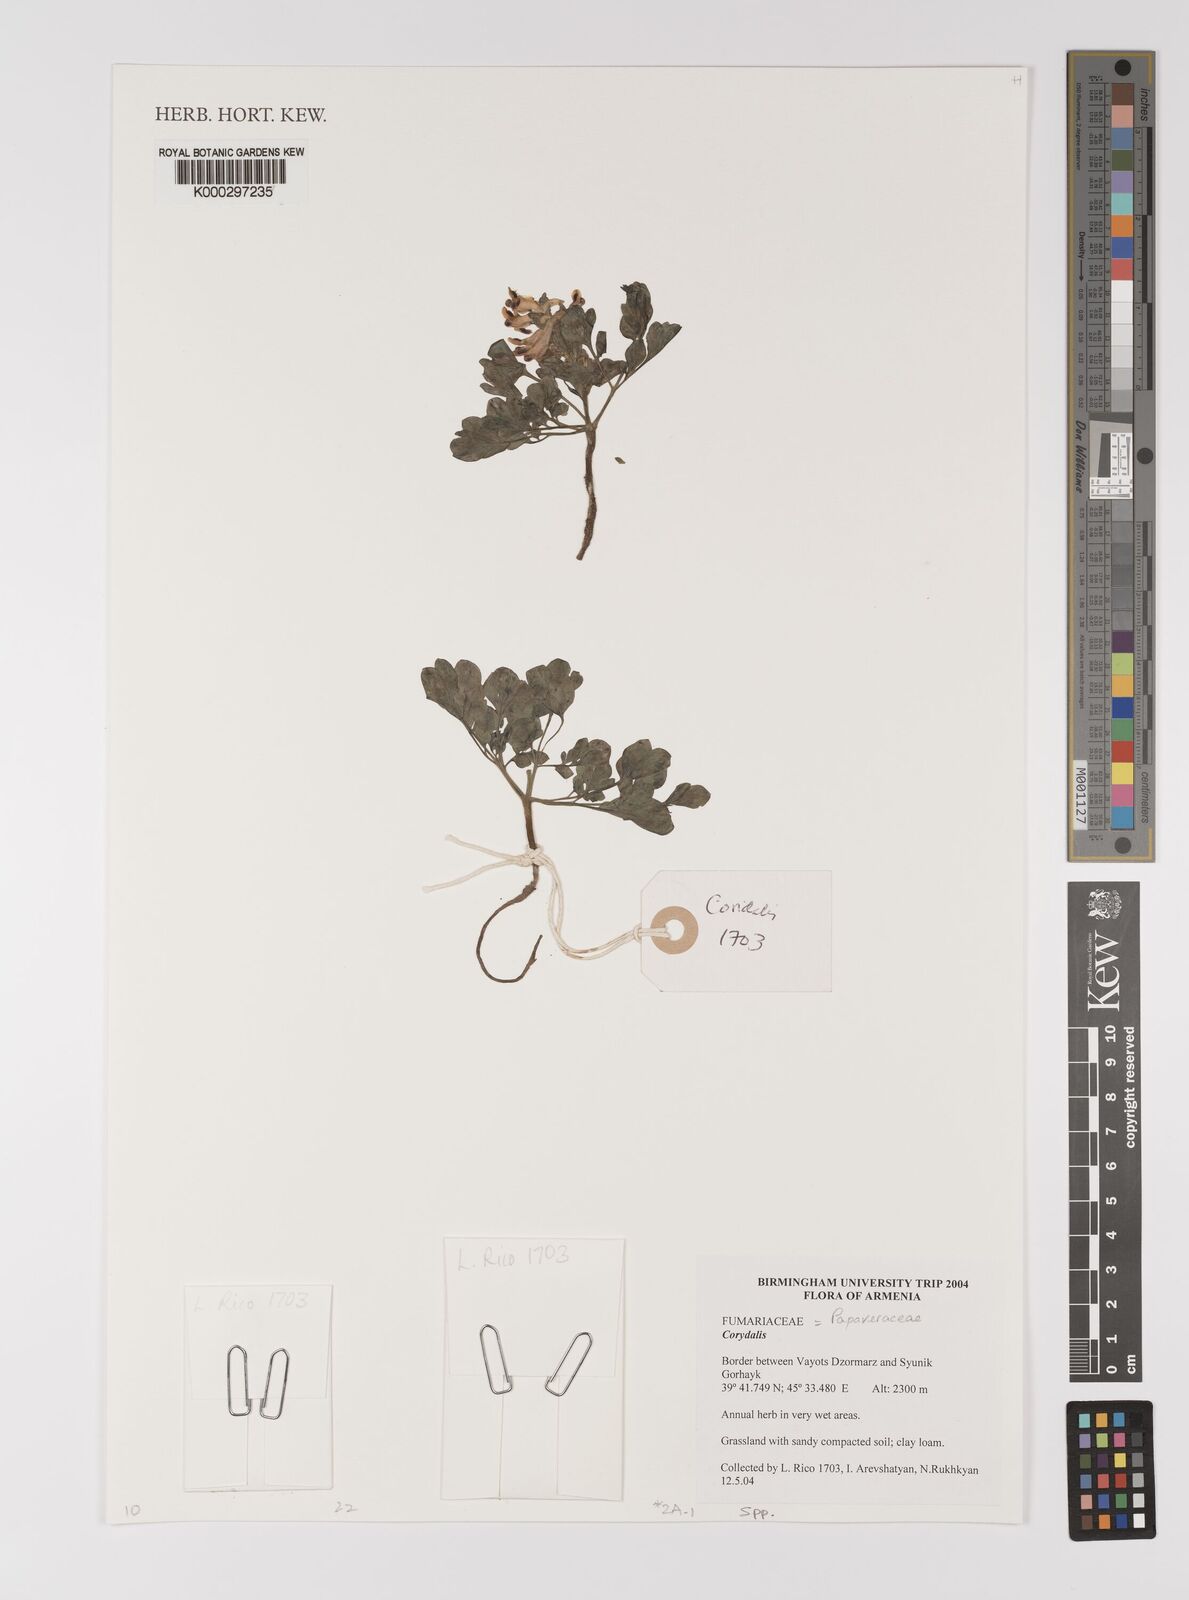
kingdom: Plantae
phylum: Tracheophyta
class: Magnoliopsida
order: Ranunculales
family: Papaveraceae
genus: Corydalis
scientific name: Corydalis
